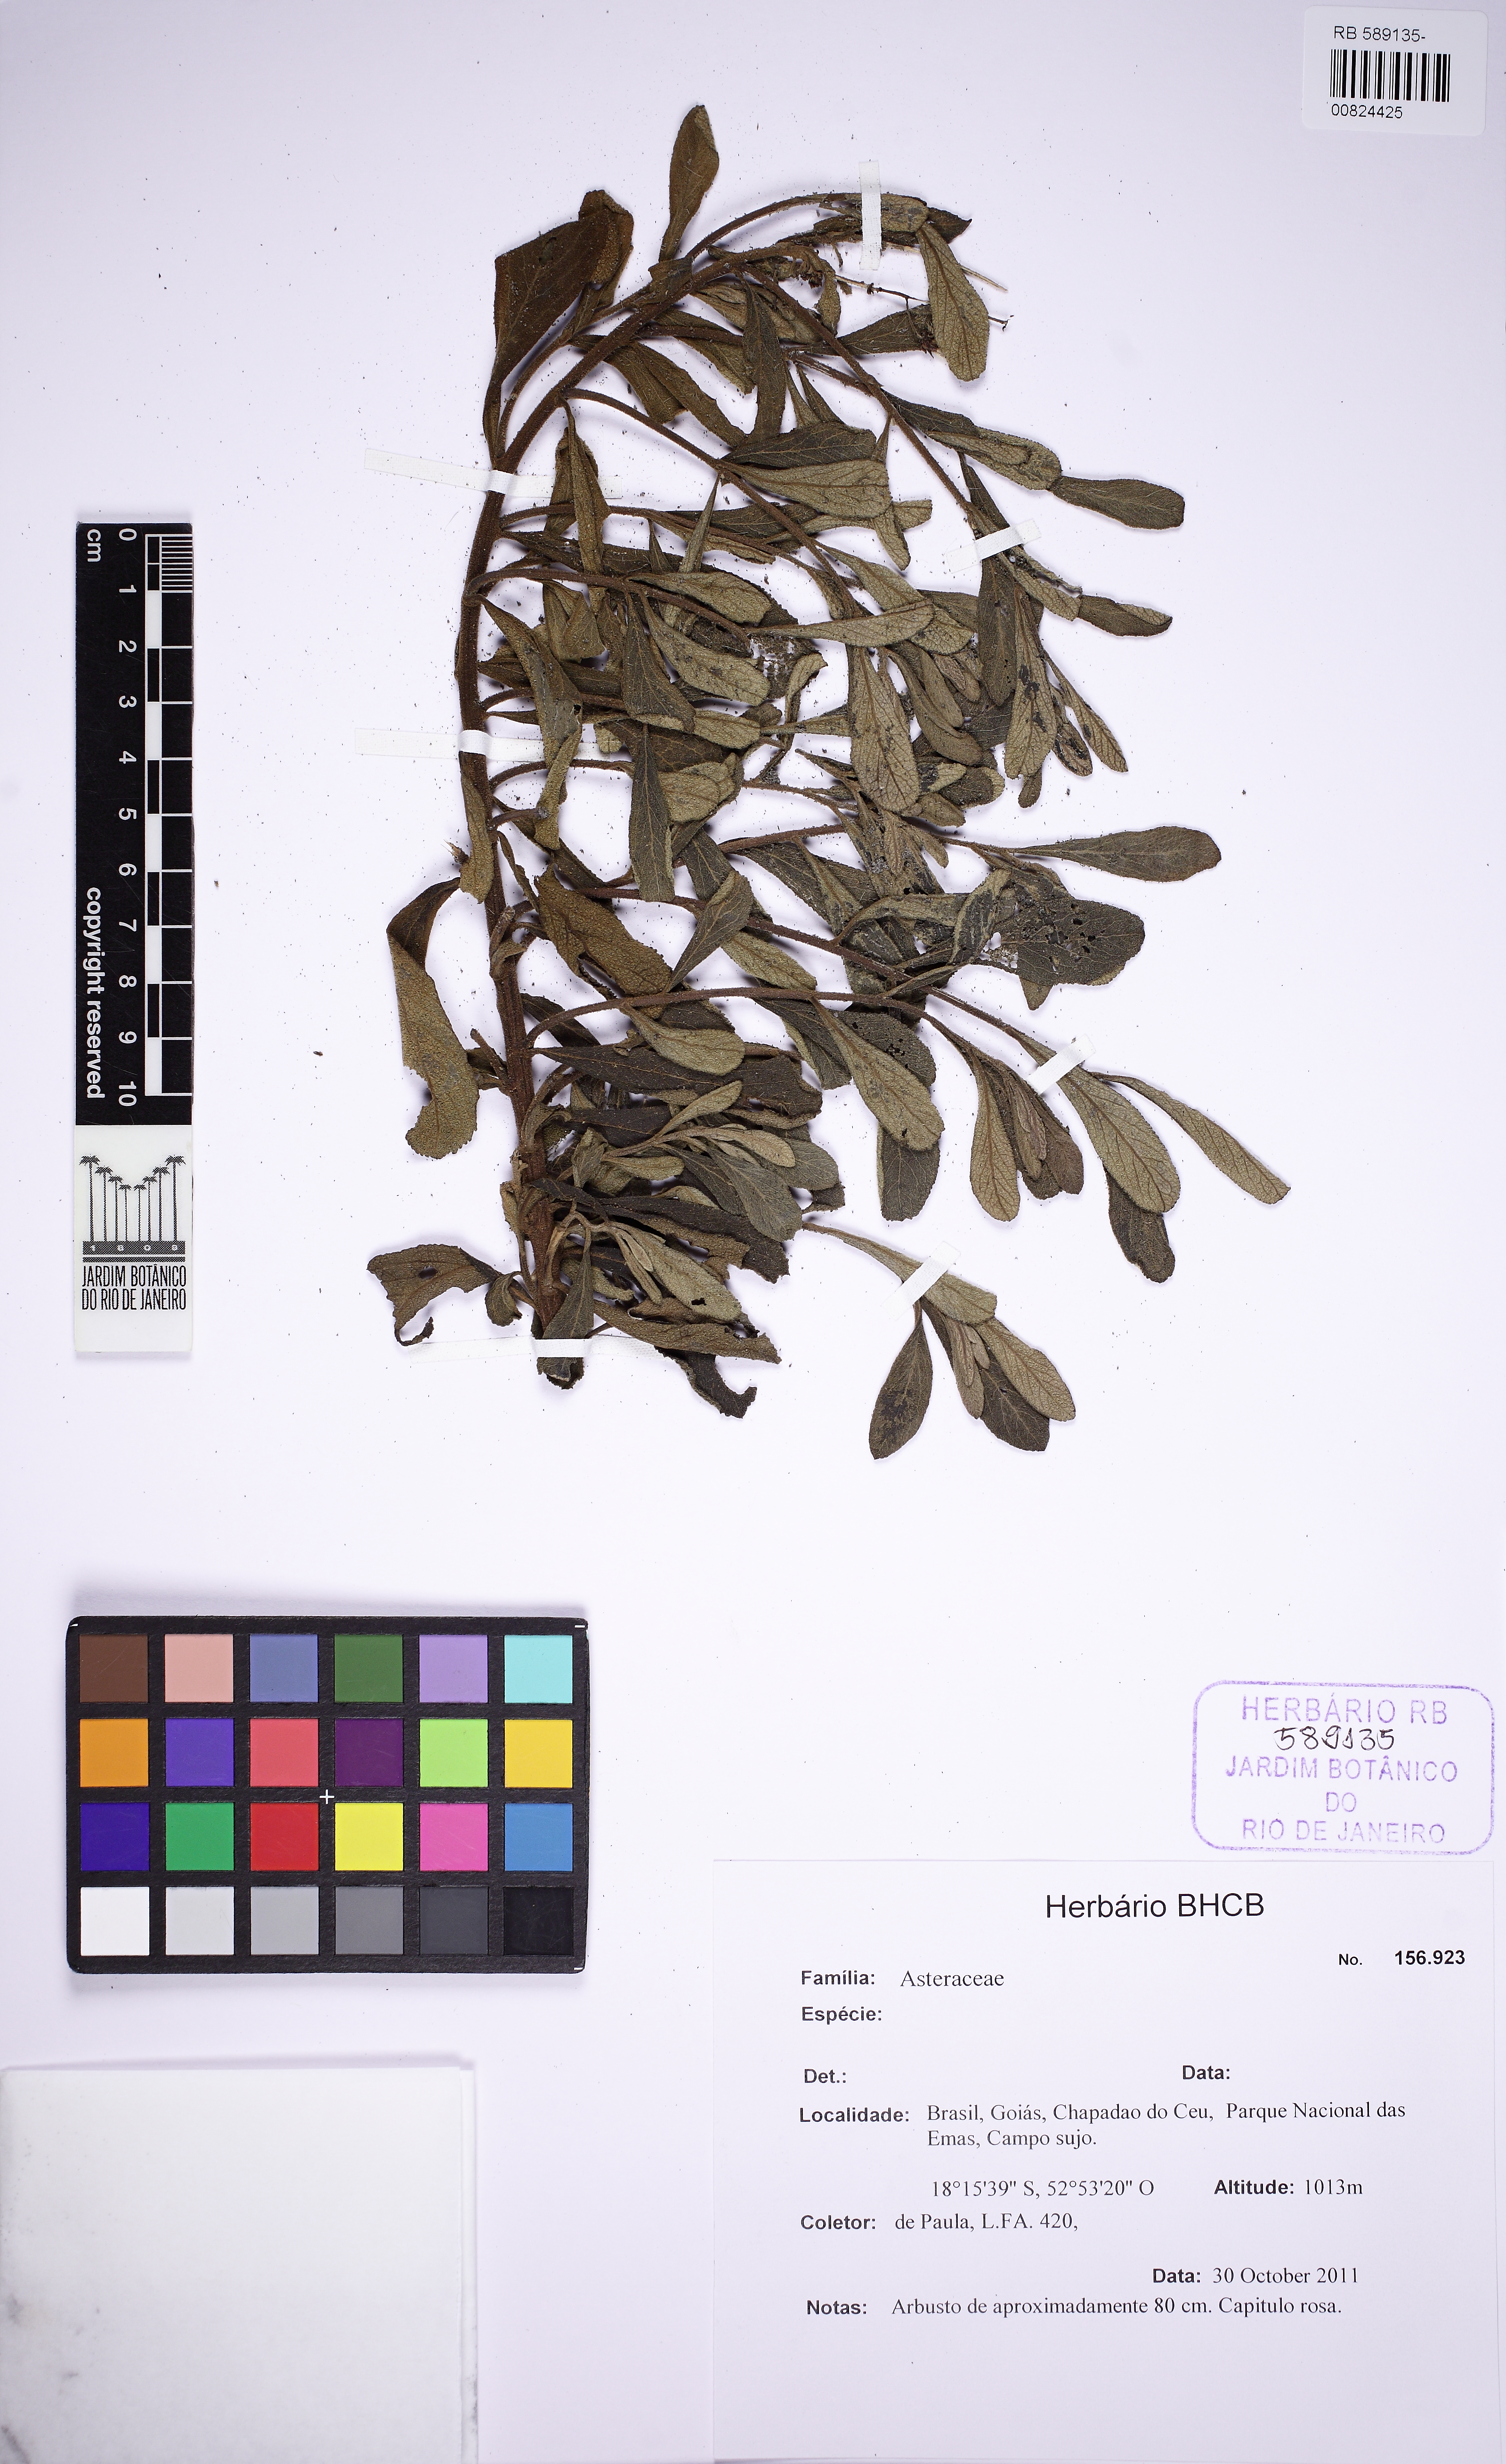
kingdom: Plantae
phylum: Tracheophyta
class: Magnoliopsida
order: Asterales
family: Asteraceae
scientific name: Asteraceae
